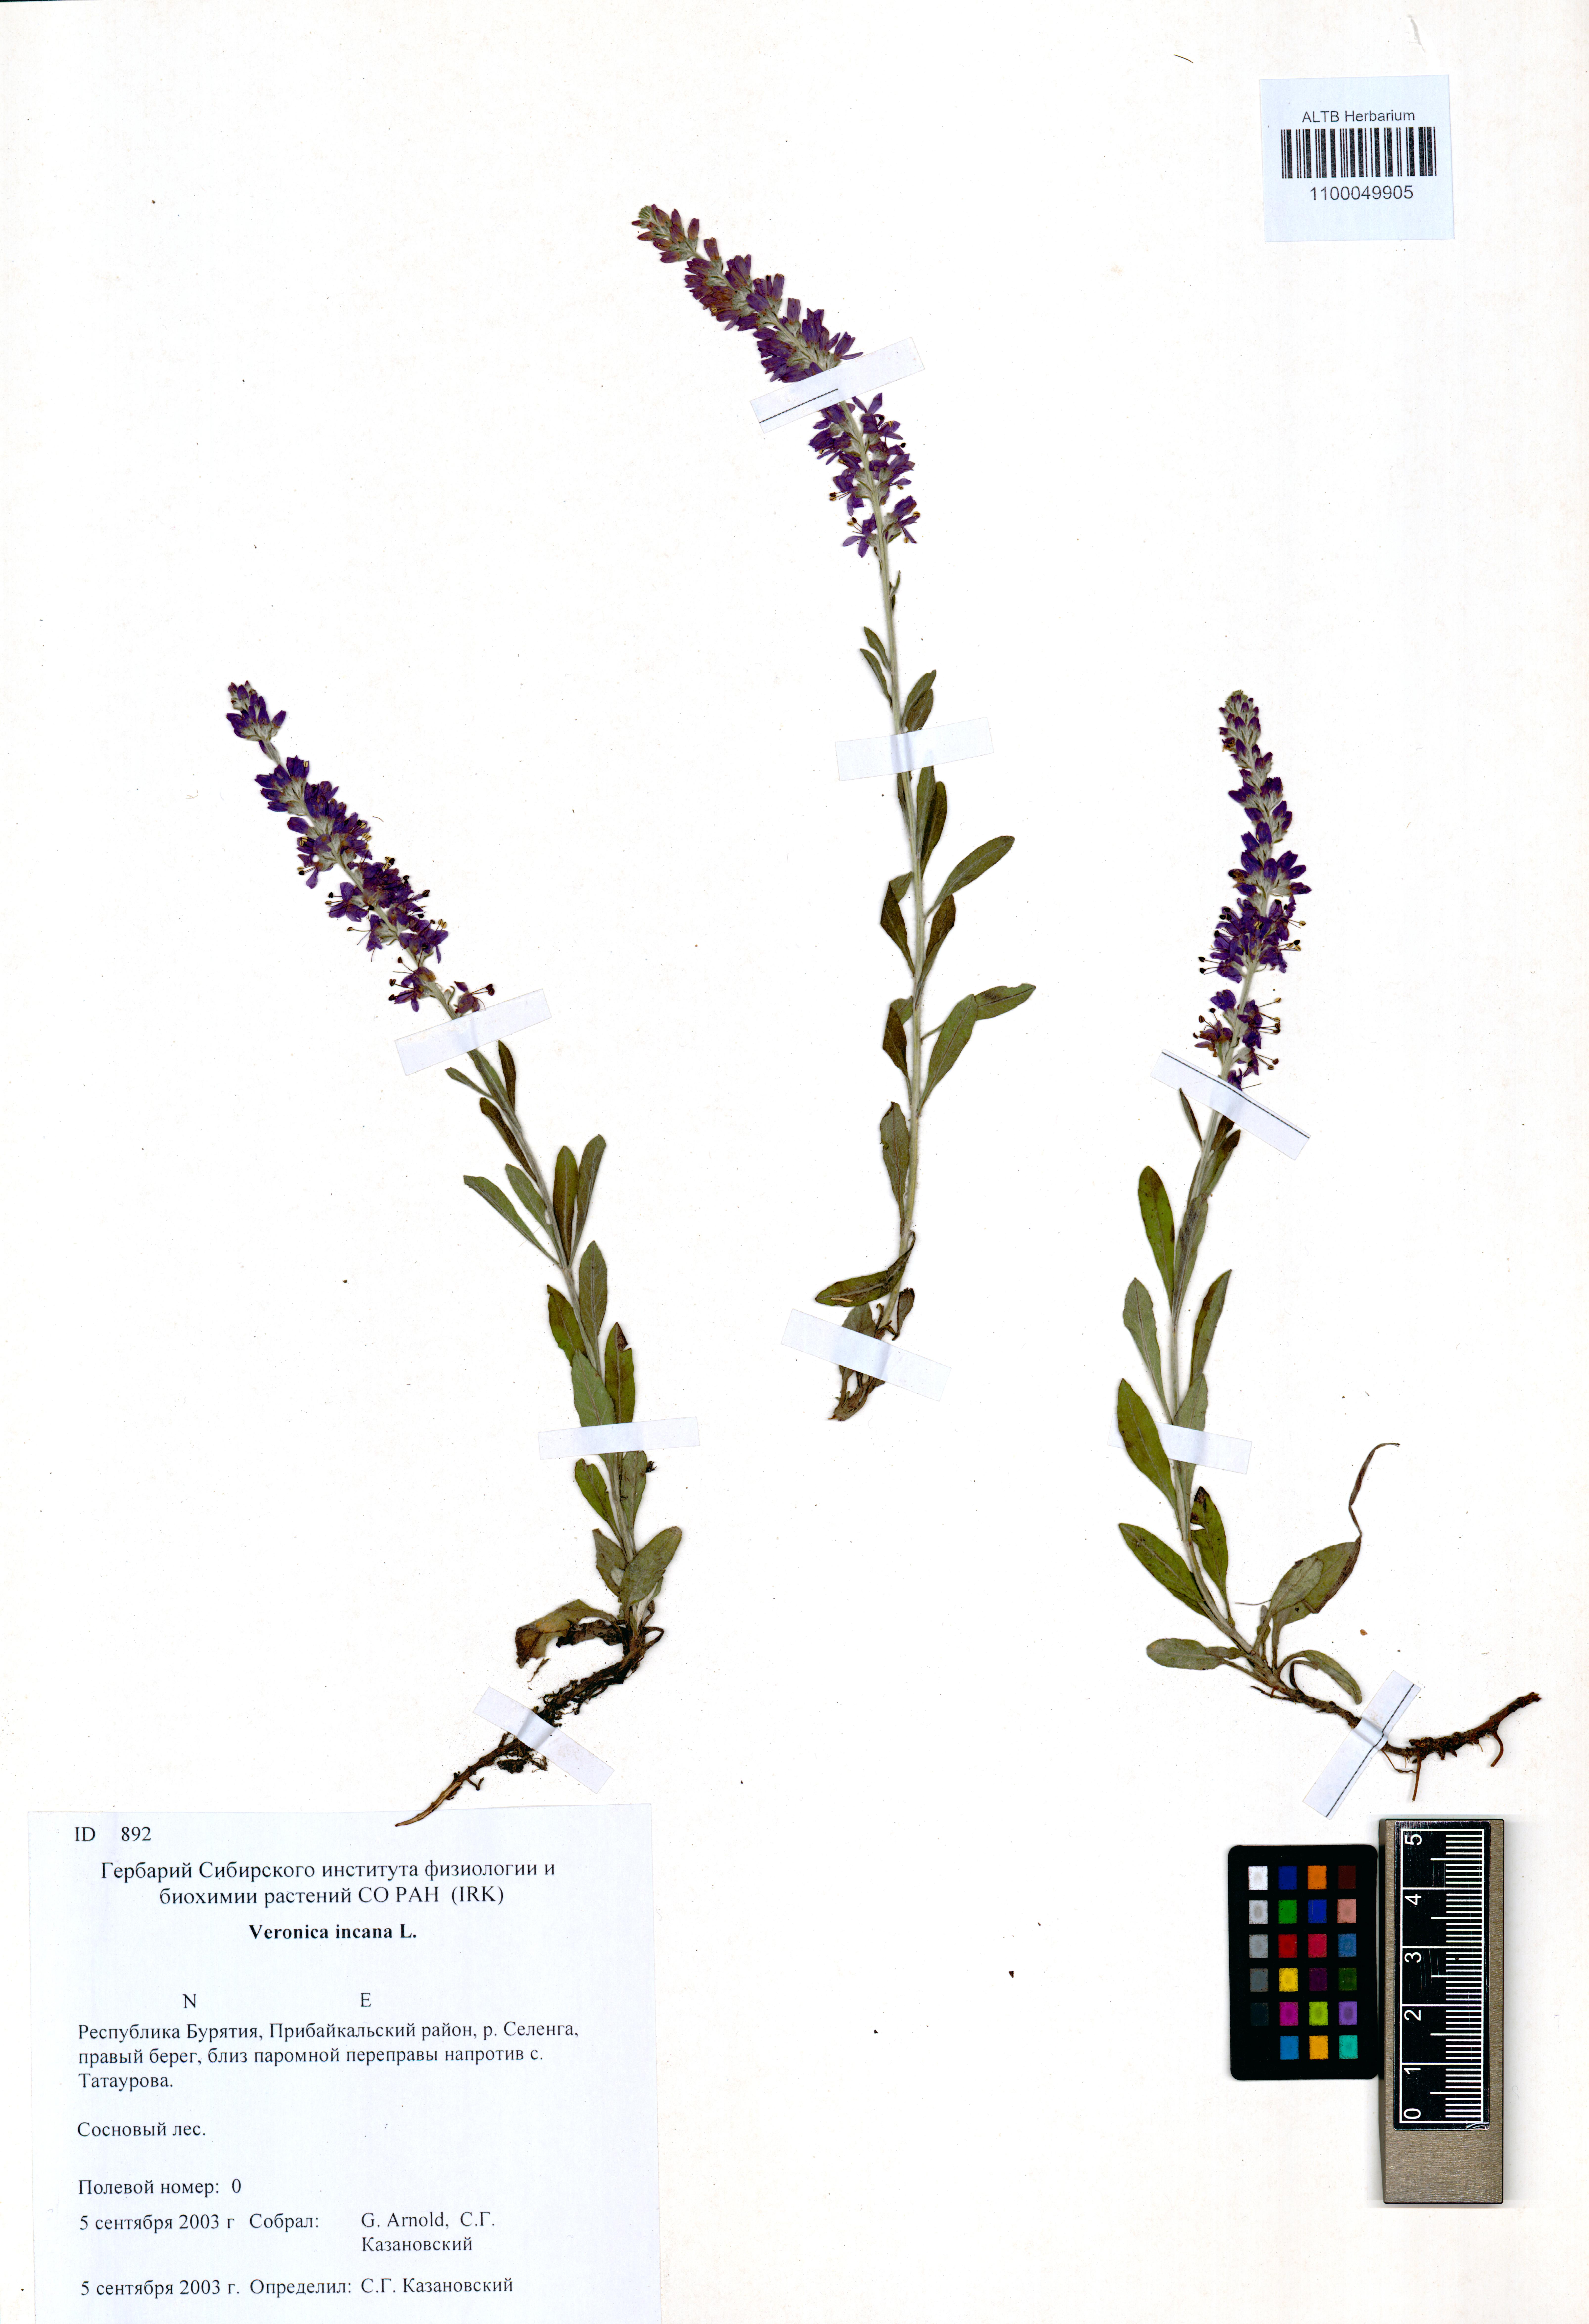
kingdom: Plantae
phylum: Tracheophyta
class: Magnoliopsida
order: Lamiales
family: Plantaginaceae
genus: Veronica
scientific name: Veronica incana
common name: Silver speedwell
